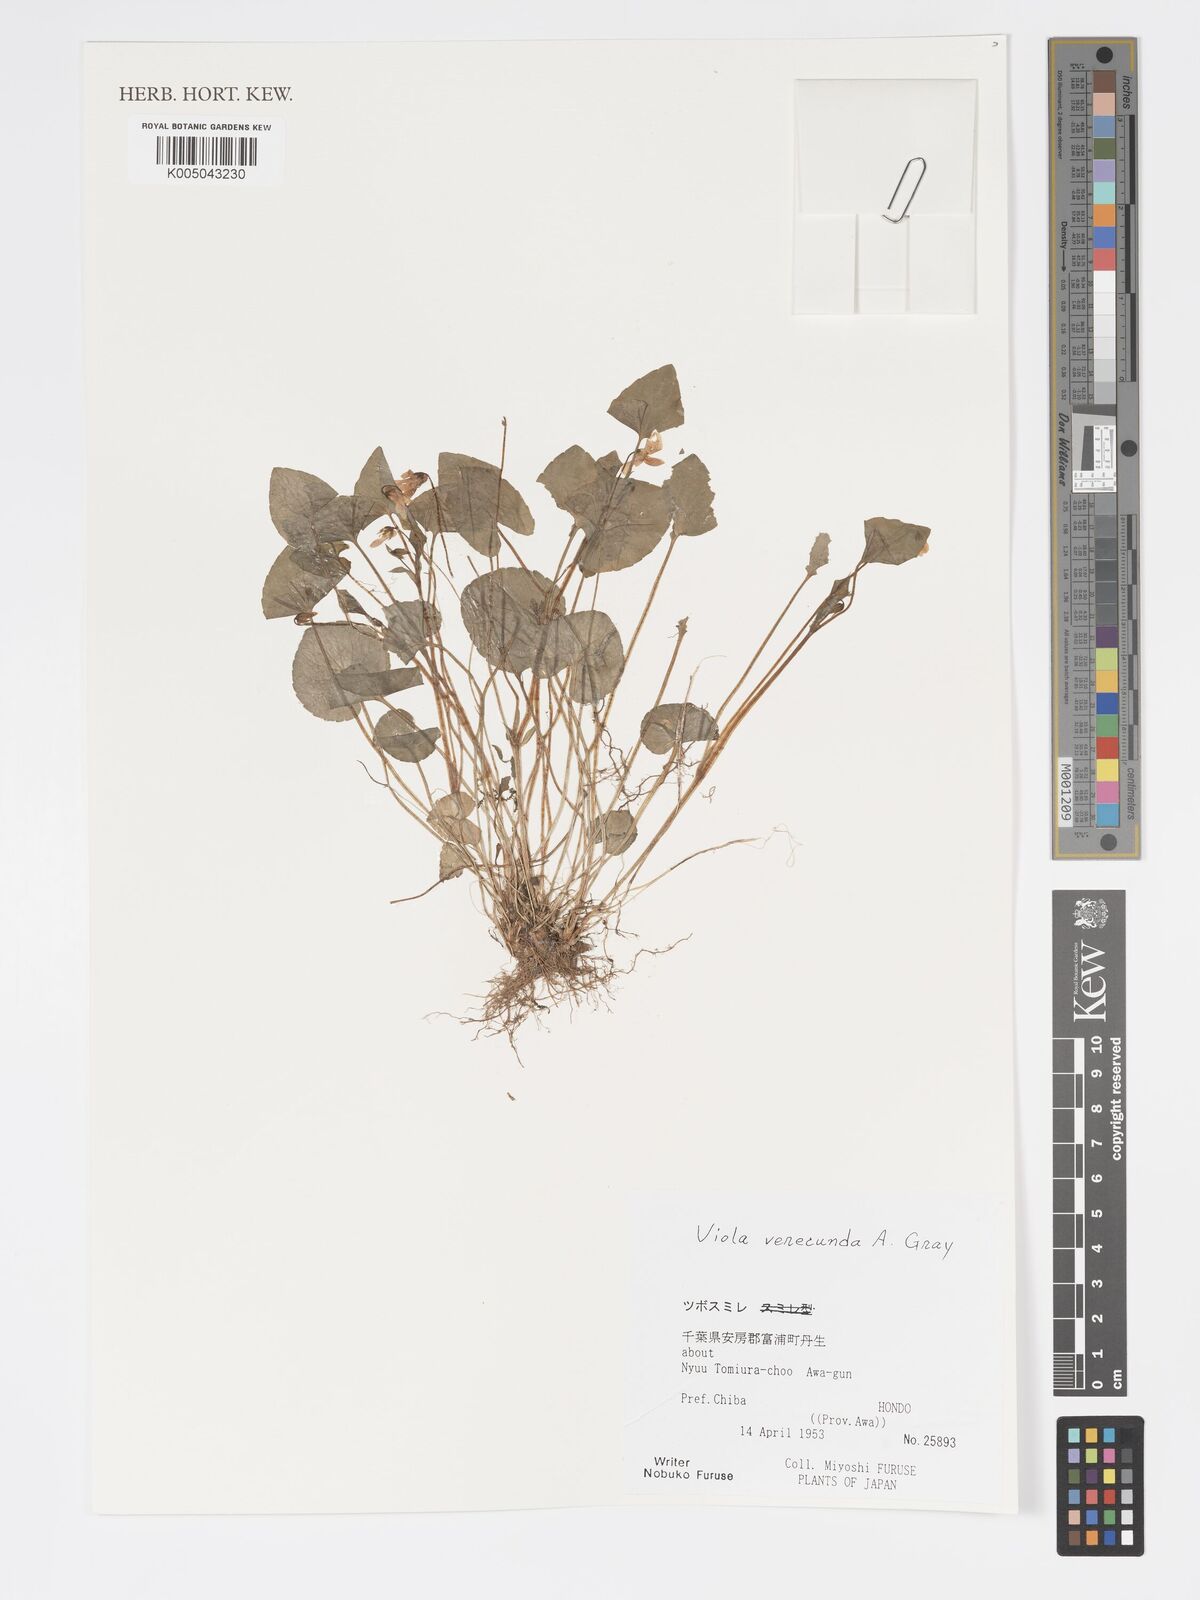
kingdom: Plantae
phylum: Tracheophyta
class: Magnoliopsida
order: Malpighiales
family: Violaceae
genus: Viola
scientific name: Viola hamiltoniana
